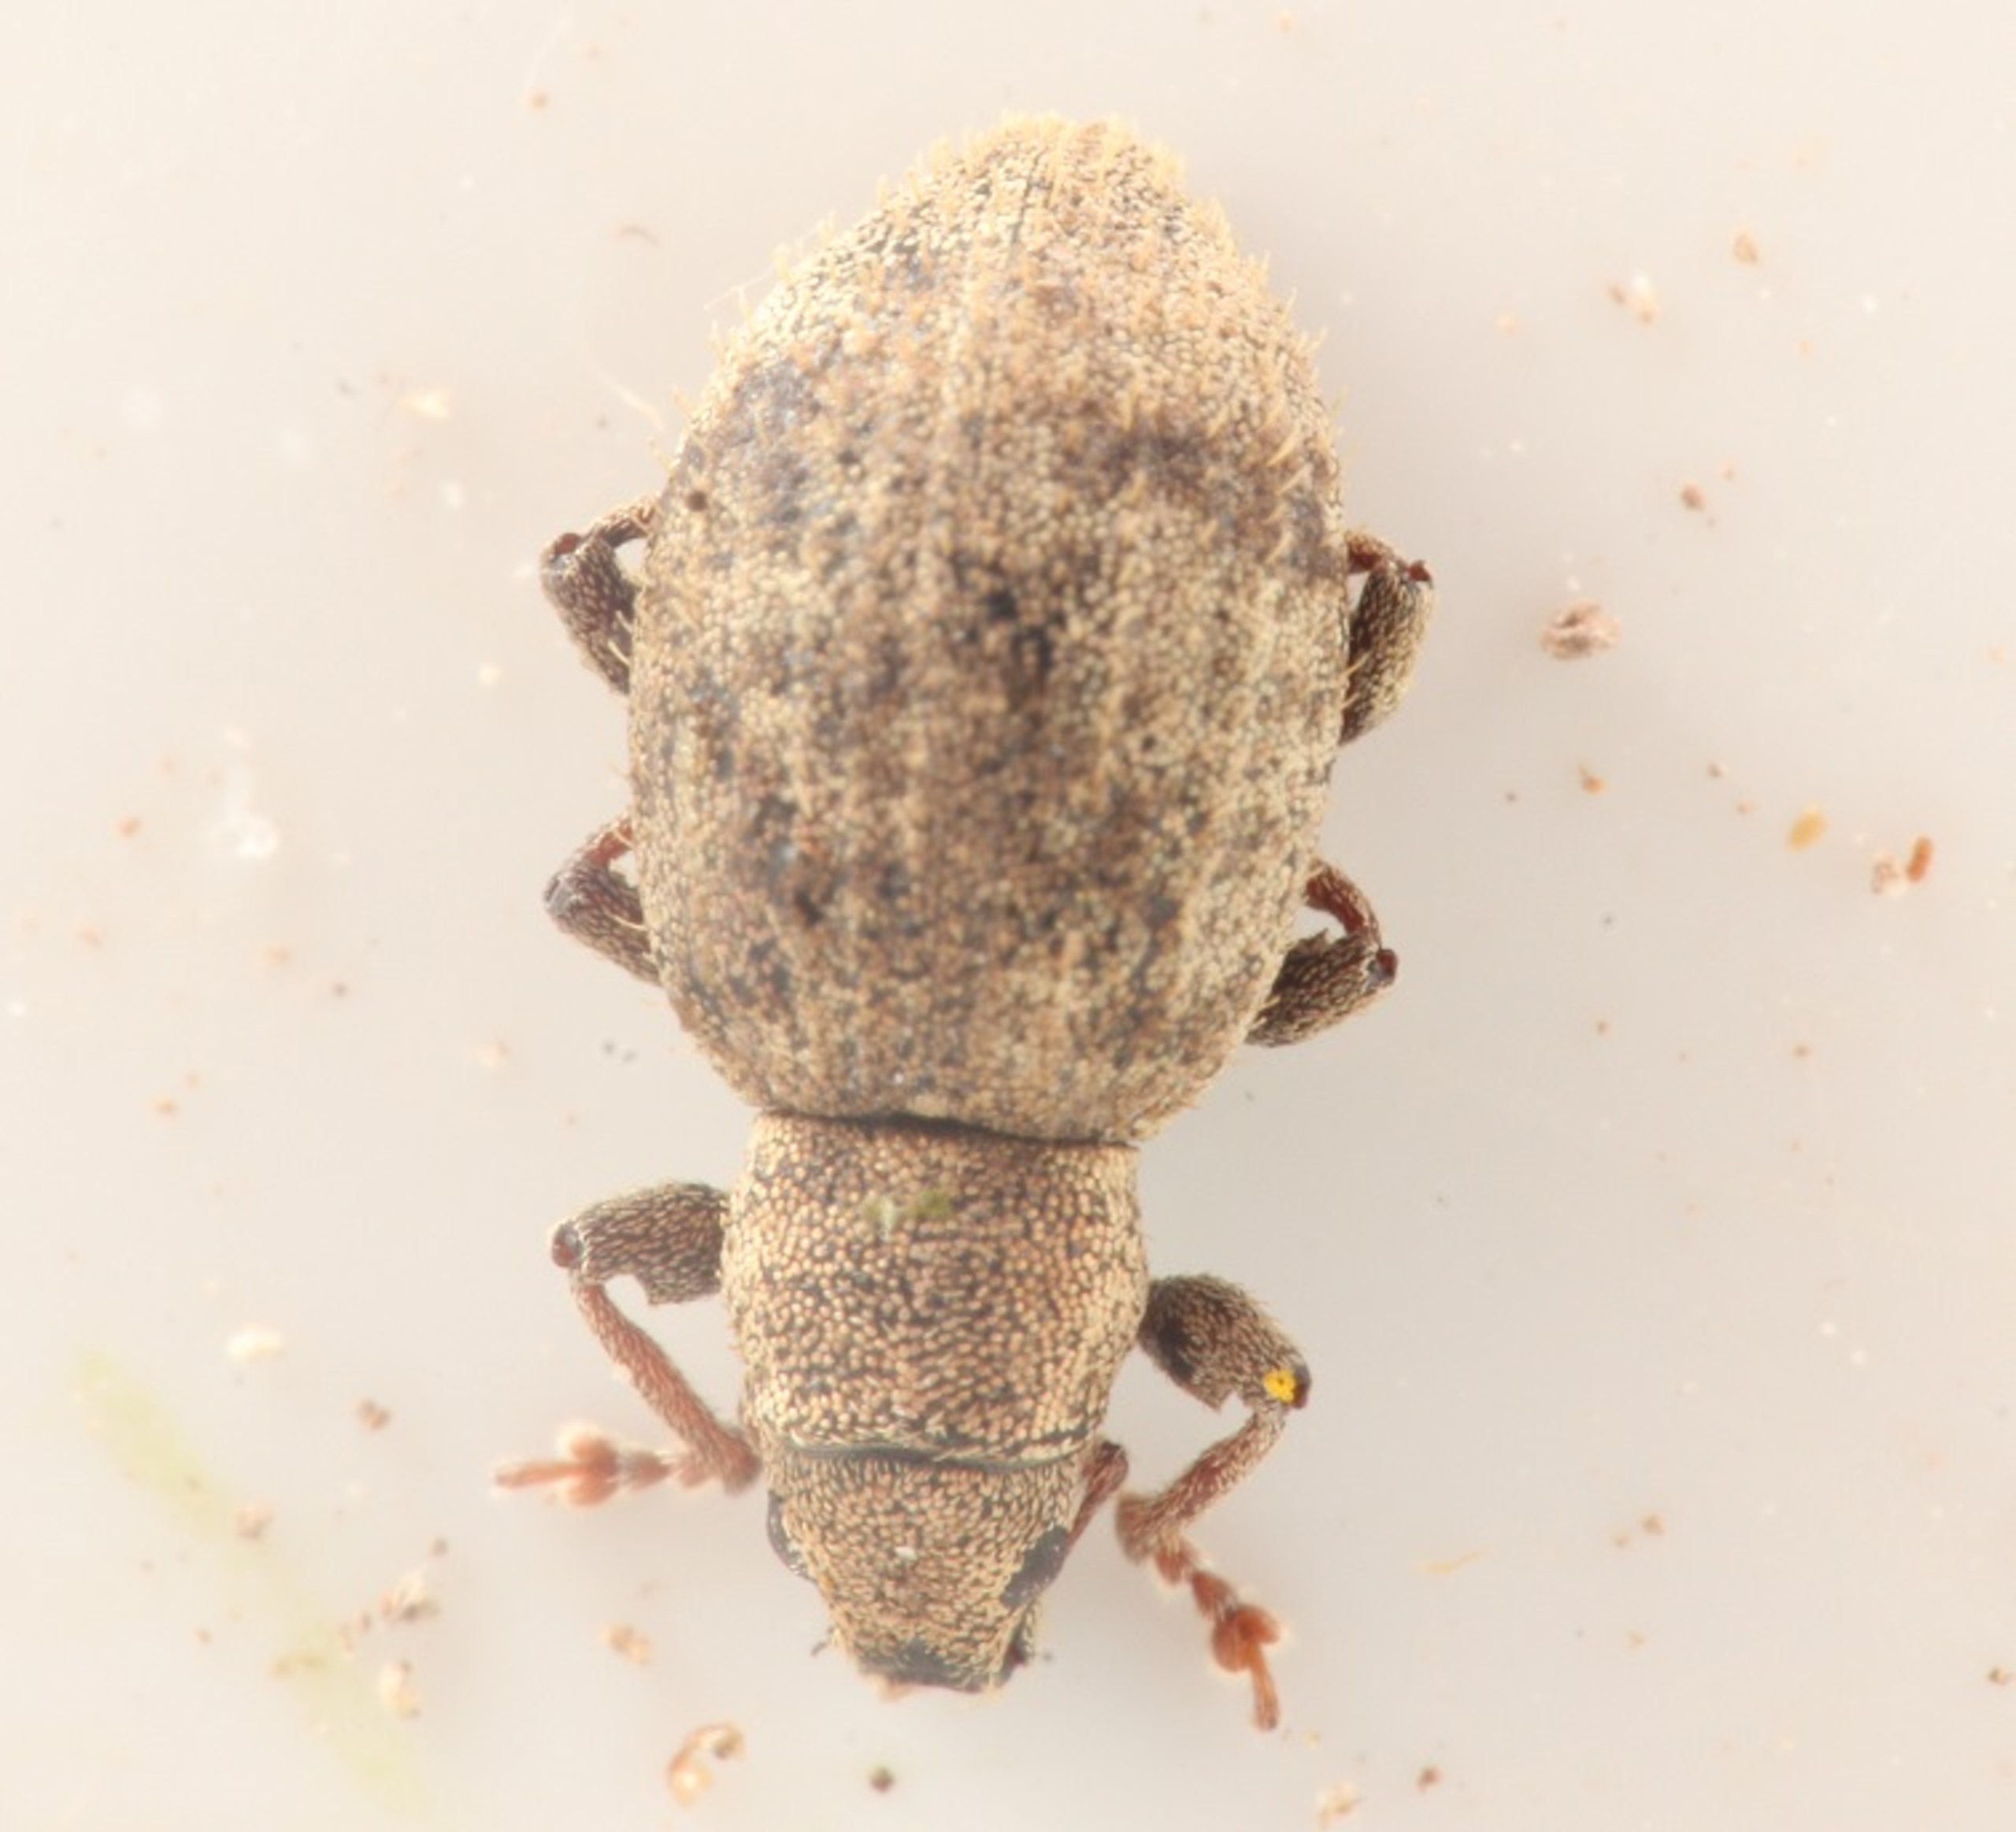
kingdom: Animalia
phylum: Arthropoda
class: Insecta
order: Coleoptera
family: Curculionidae
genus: Sciaphilus
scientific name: Sciaphilus asperatus
